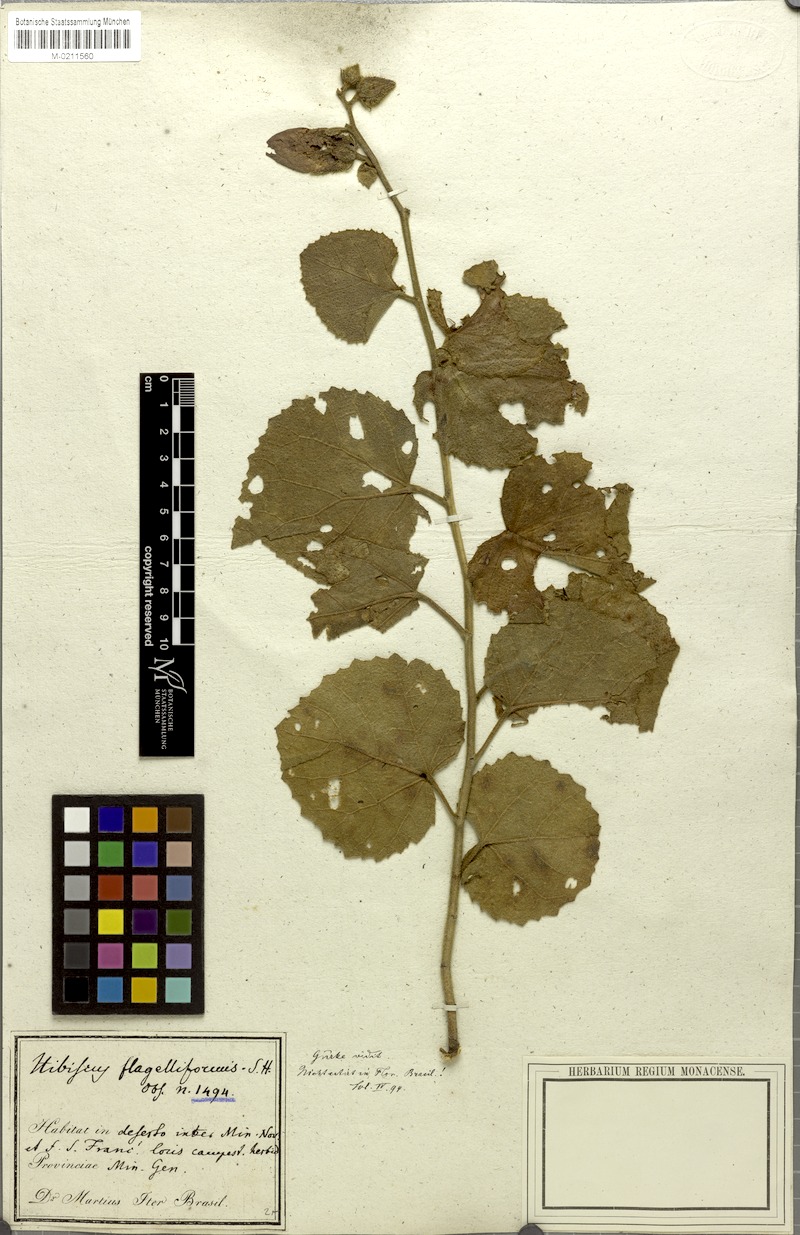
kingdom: Plantae
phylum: Tracheophyta
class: Magnoliopsida
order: Malvales
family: Malvaceae
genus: Hibiscus
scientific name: Hibiscus flagelliformis
